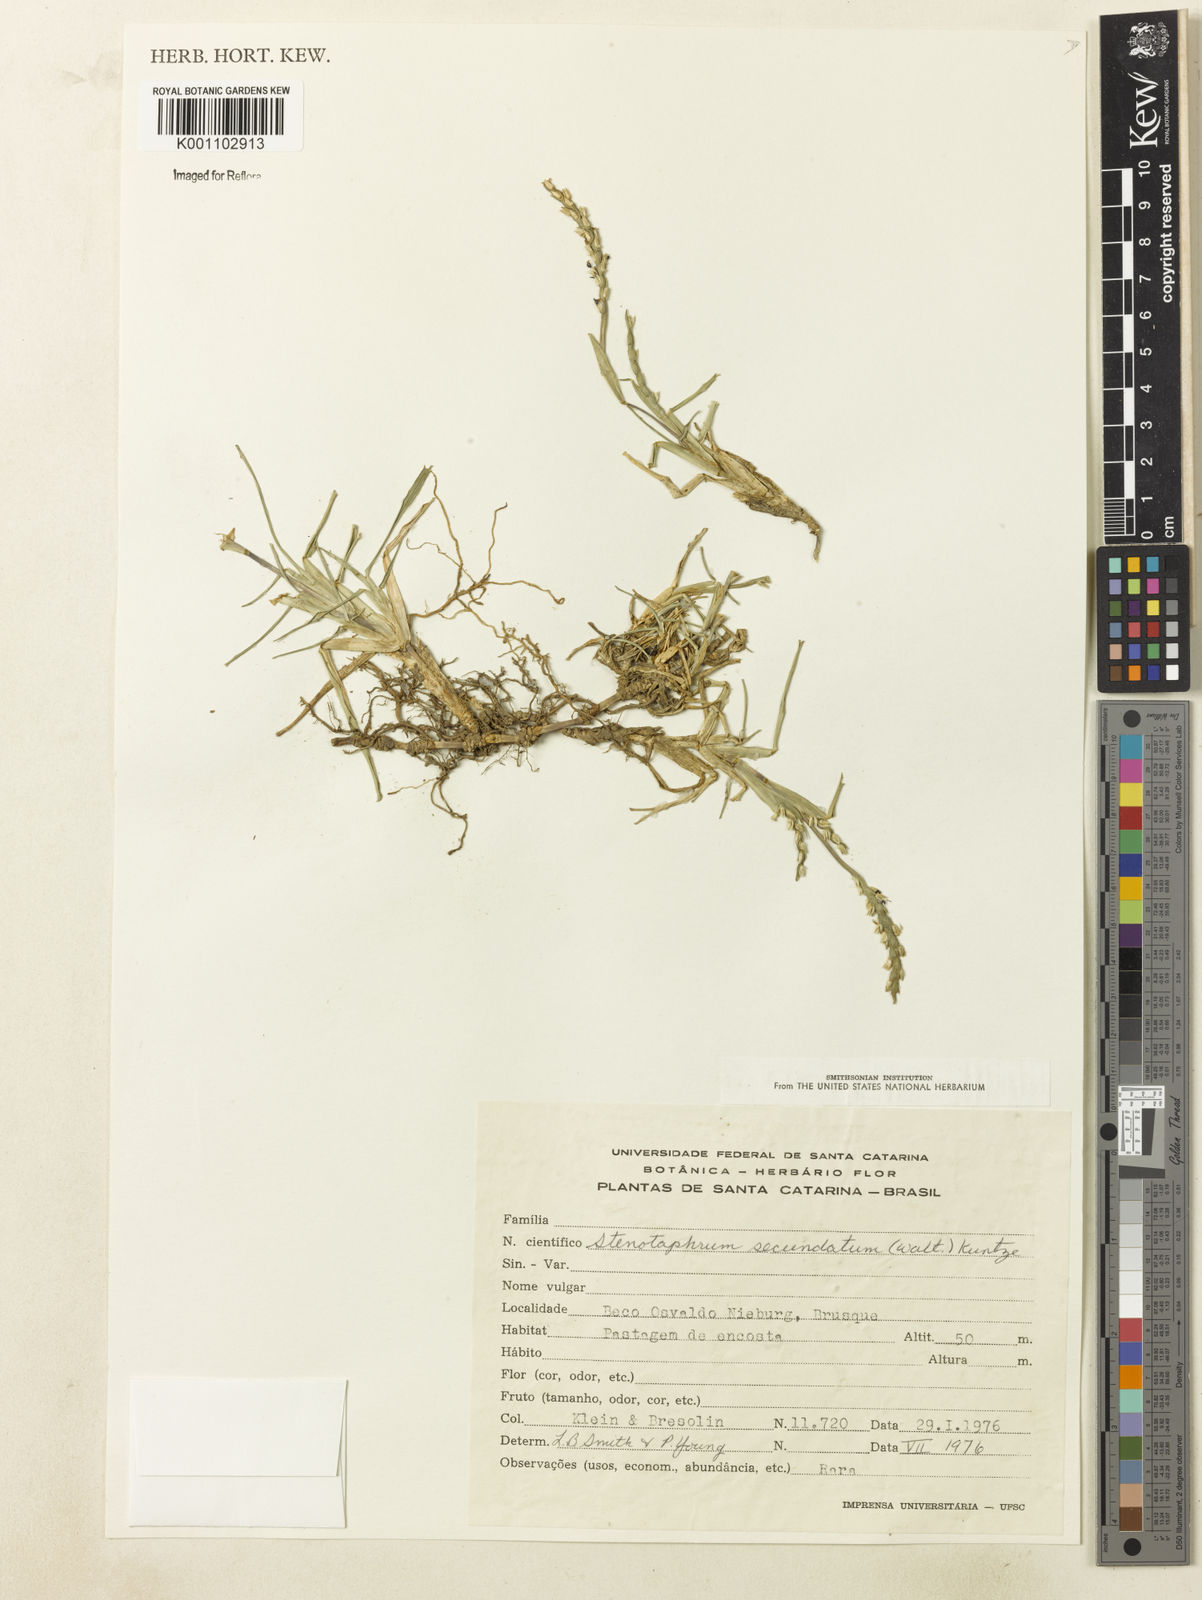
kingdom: Plantae
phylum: Tracheophyta
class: Liliopsida
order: Poales
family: Poaceae
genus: Stenotaphrum
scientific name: Stenotaphrum secundatum
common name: St. augustine grass
